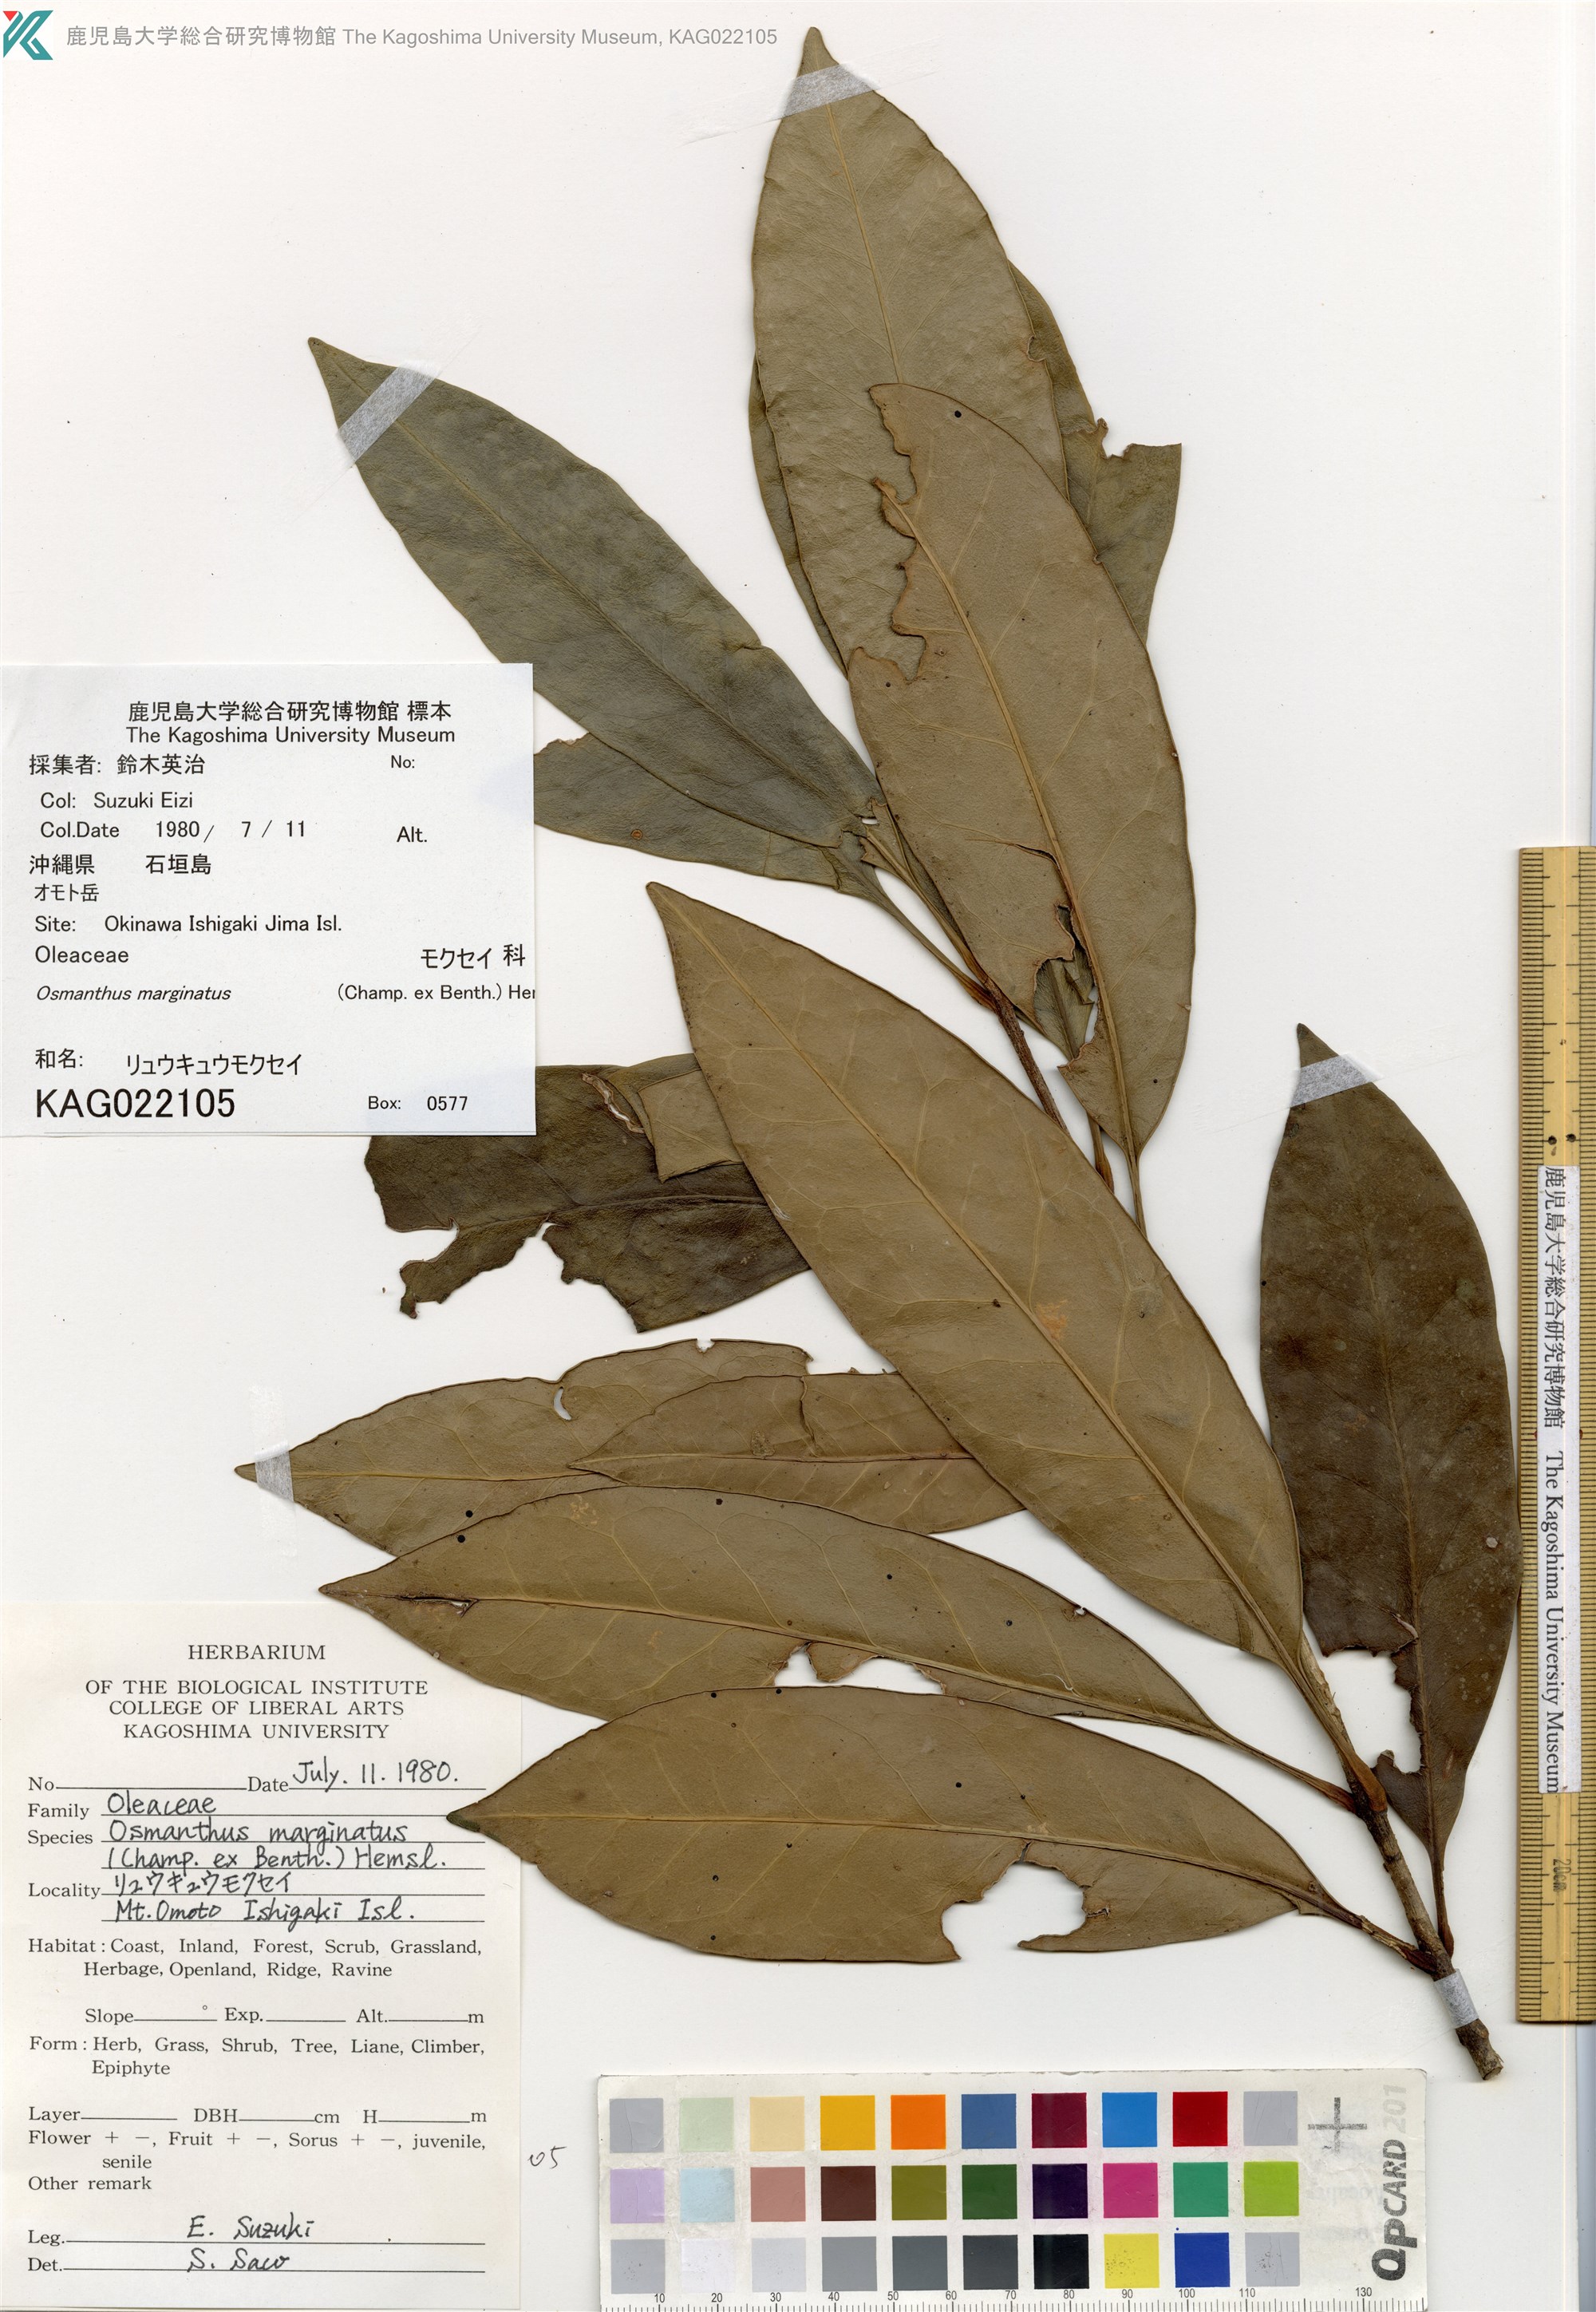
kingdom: Plantae
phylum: Tracheophyta
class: Magnoliopsida
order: Lamiales
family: Oleaceae
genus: Chengiodendron
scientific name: Chengiodendron marginatum
